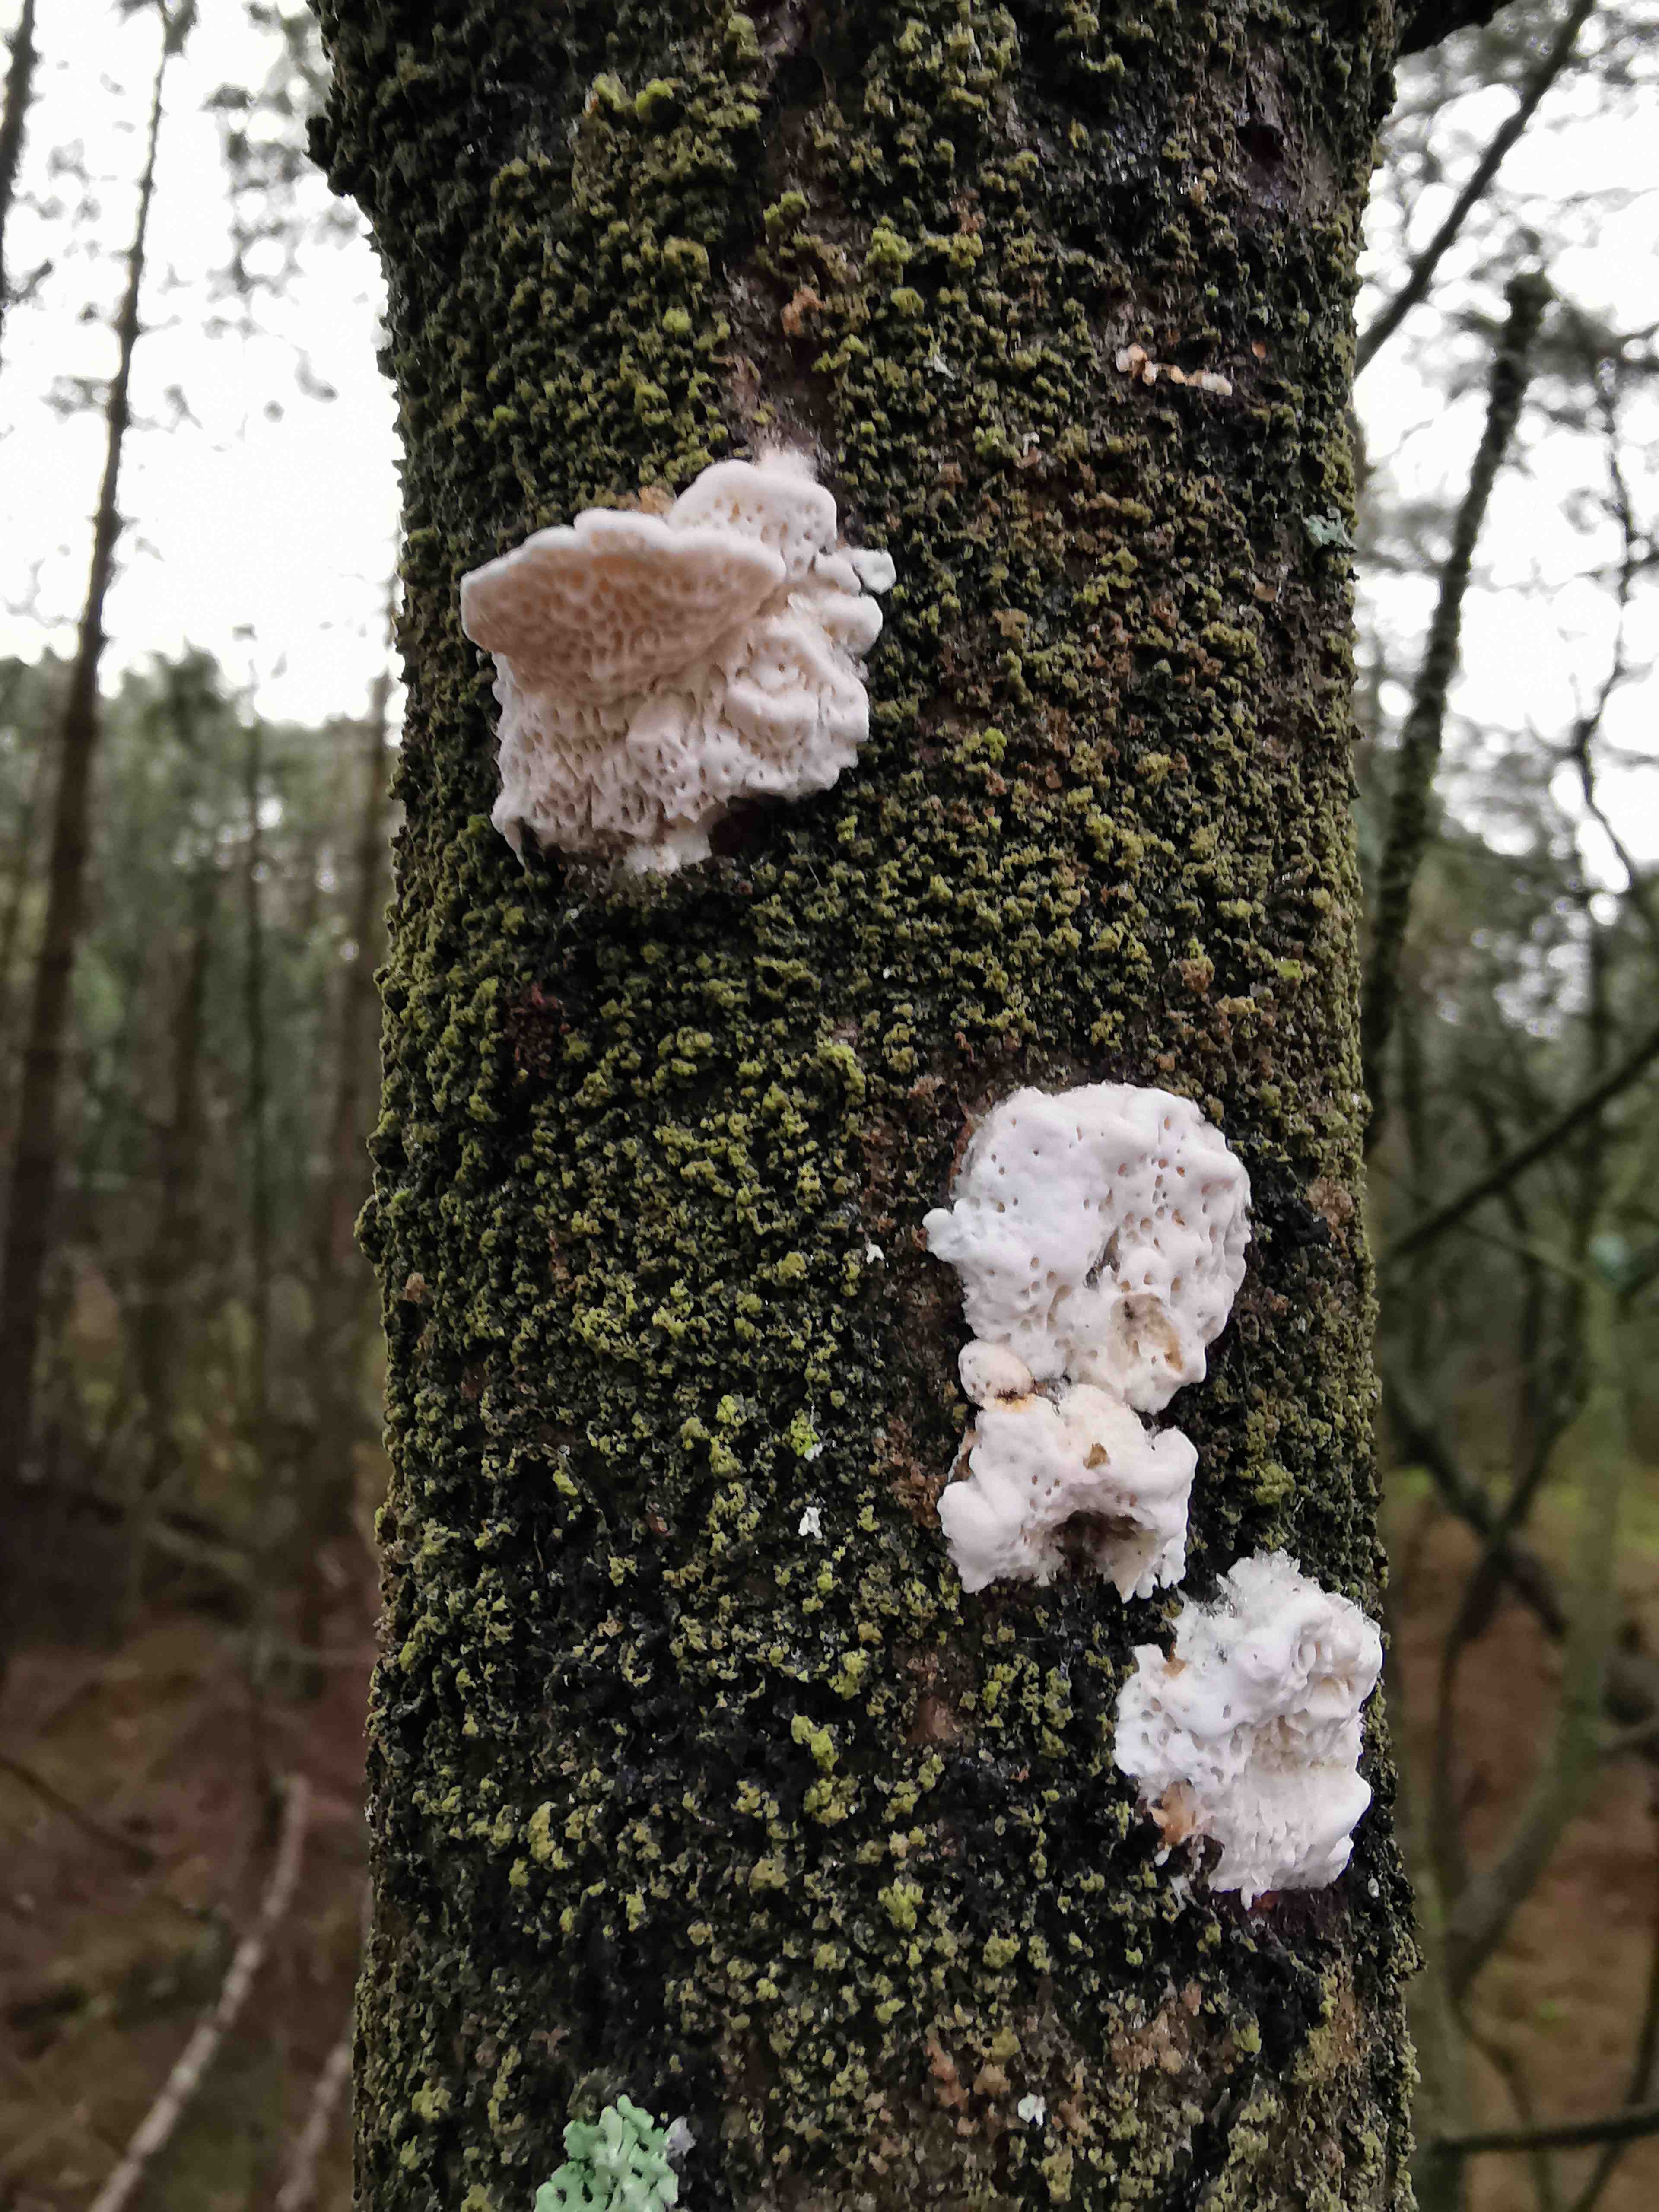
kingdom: Fungi
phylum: Basidiomycota
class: Agaricomycetes
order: Polyporales
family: Fomitopsidaceae
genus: Fomitopsis
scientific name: Fomitopsis
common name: fyrre-skiveporesvamp
